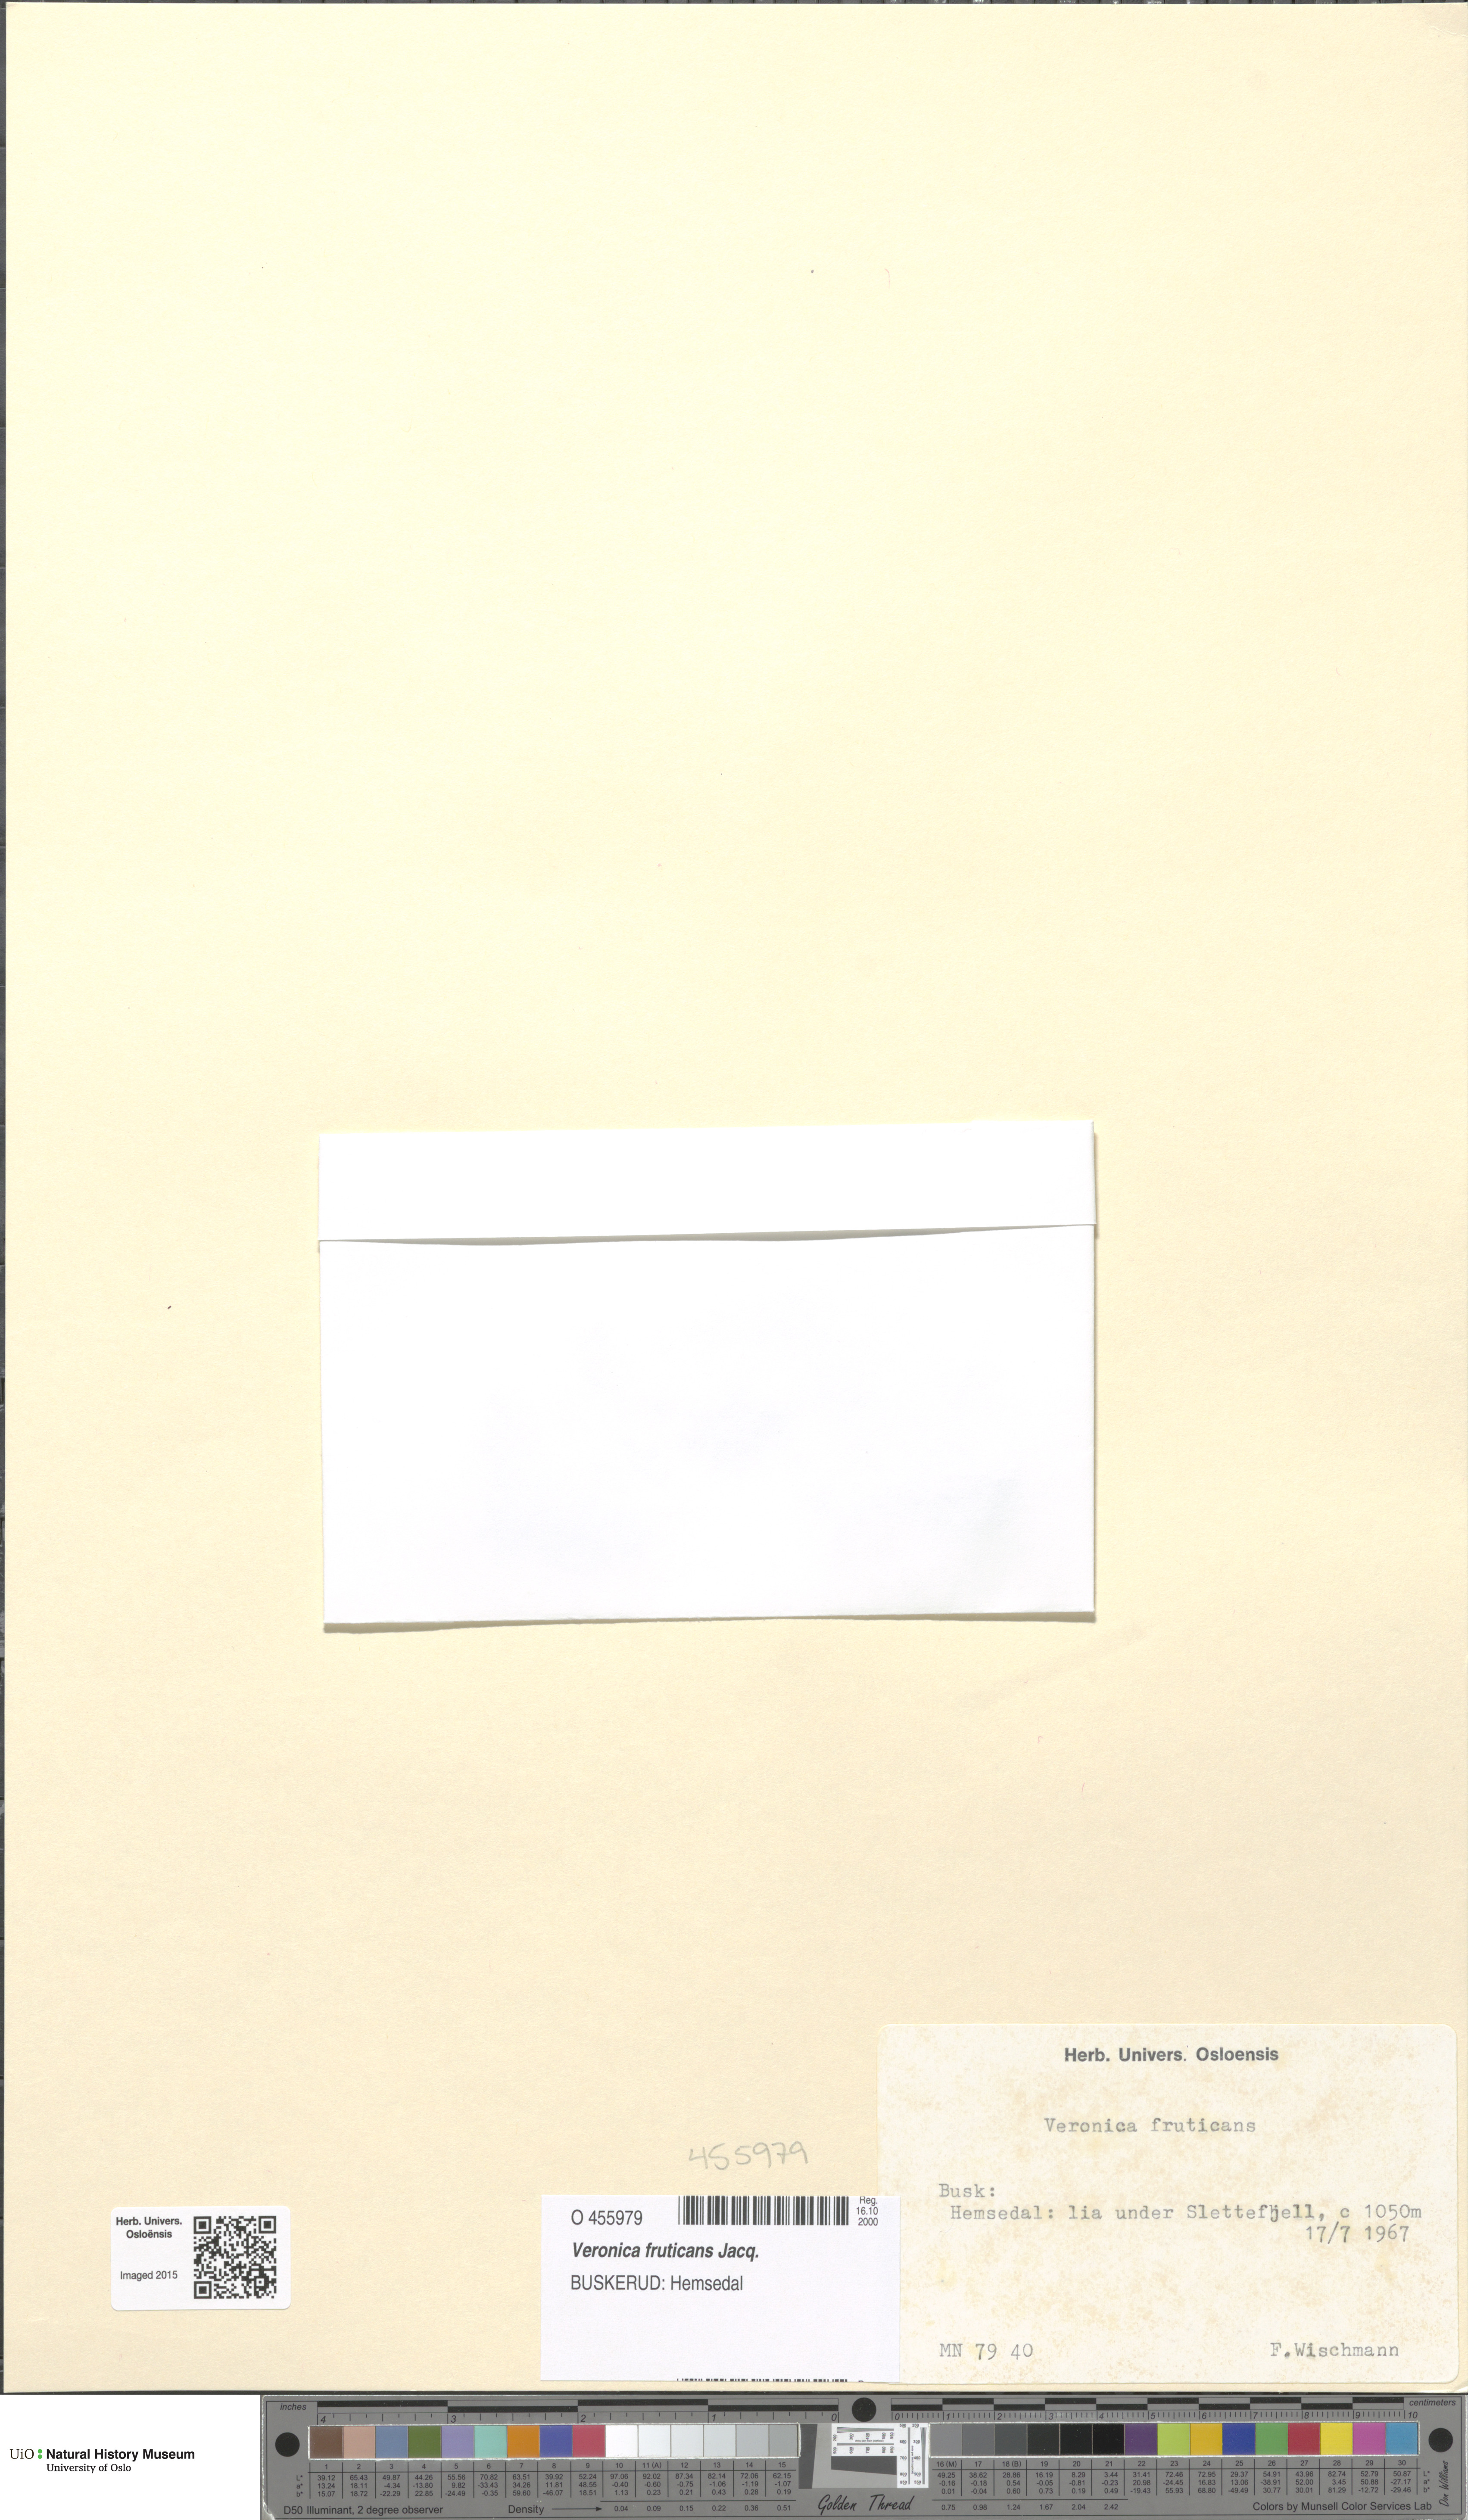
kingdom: Plantae
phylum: Tracheophyta
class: Magnoliopsida
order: Lamiales
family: Plantaginaceae
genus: Veronica
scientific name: Veronica fruticans
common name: Rock speedwell
